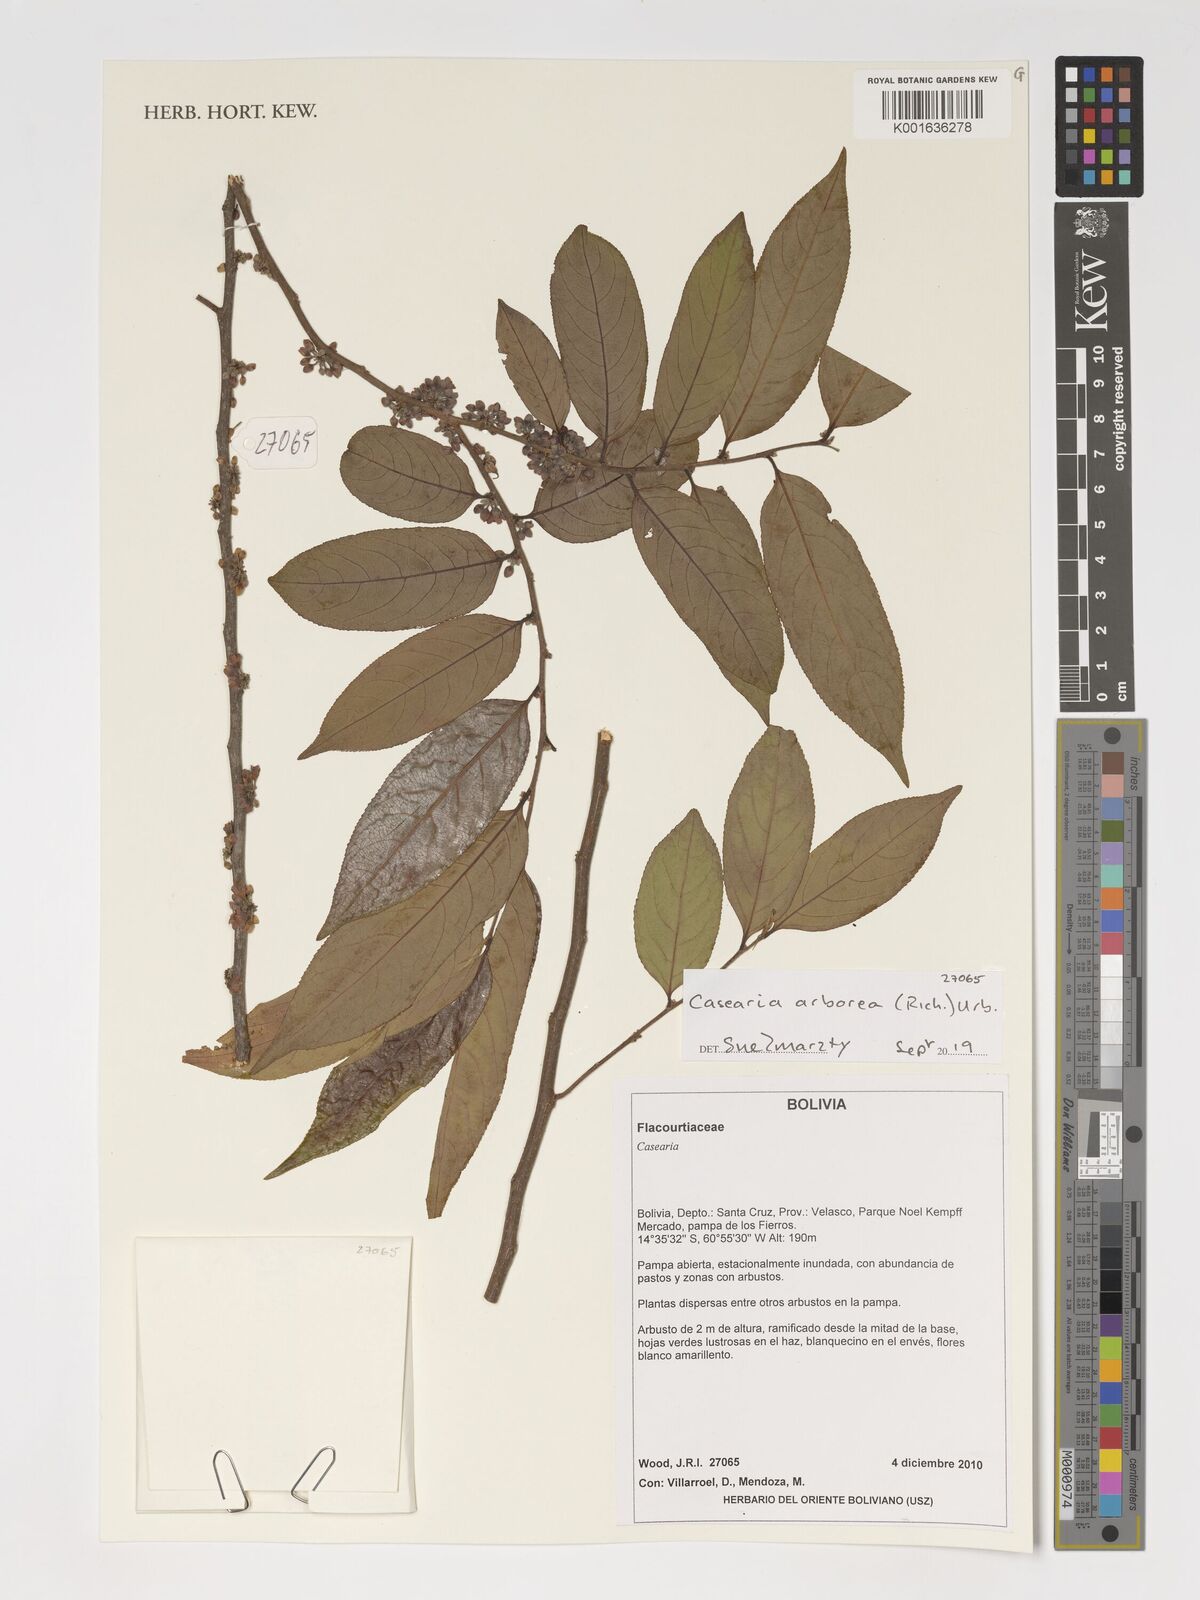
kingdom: Plantae
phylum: Tracheophyta
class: Magnoliopsida
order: Malpighiales
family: Salicaceae
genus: Casearia
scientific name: Casearia arborea
